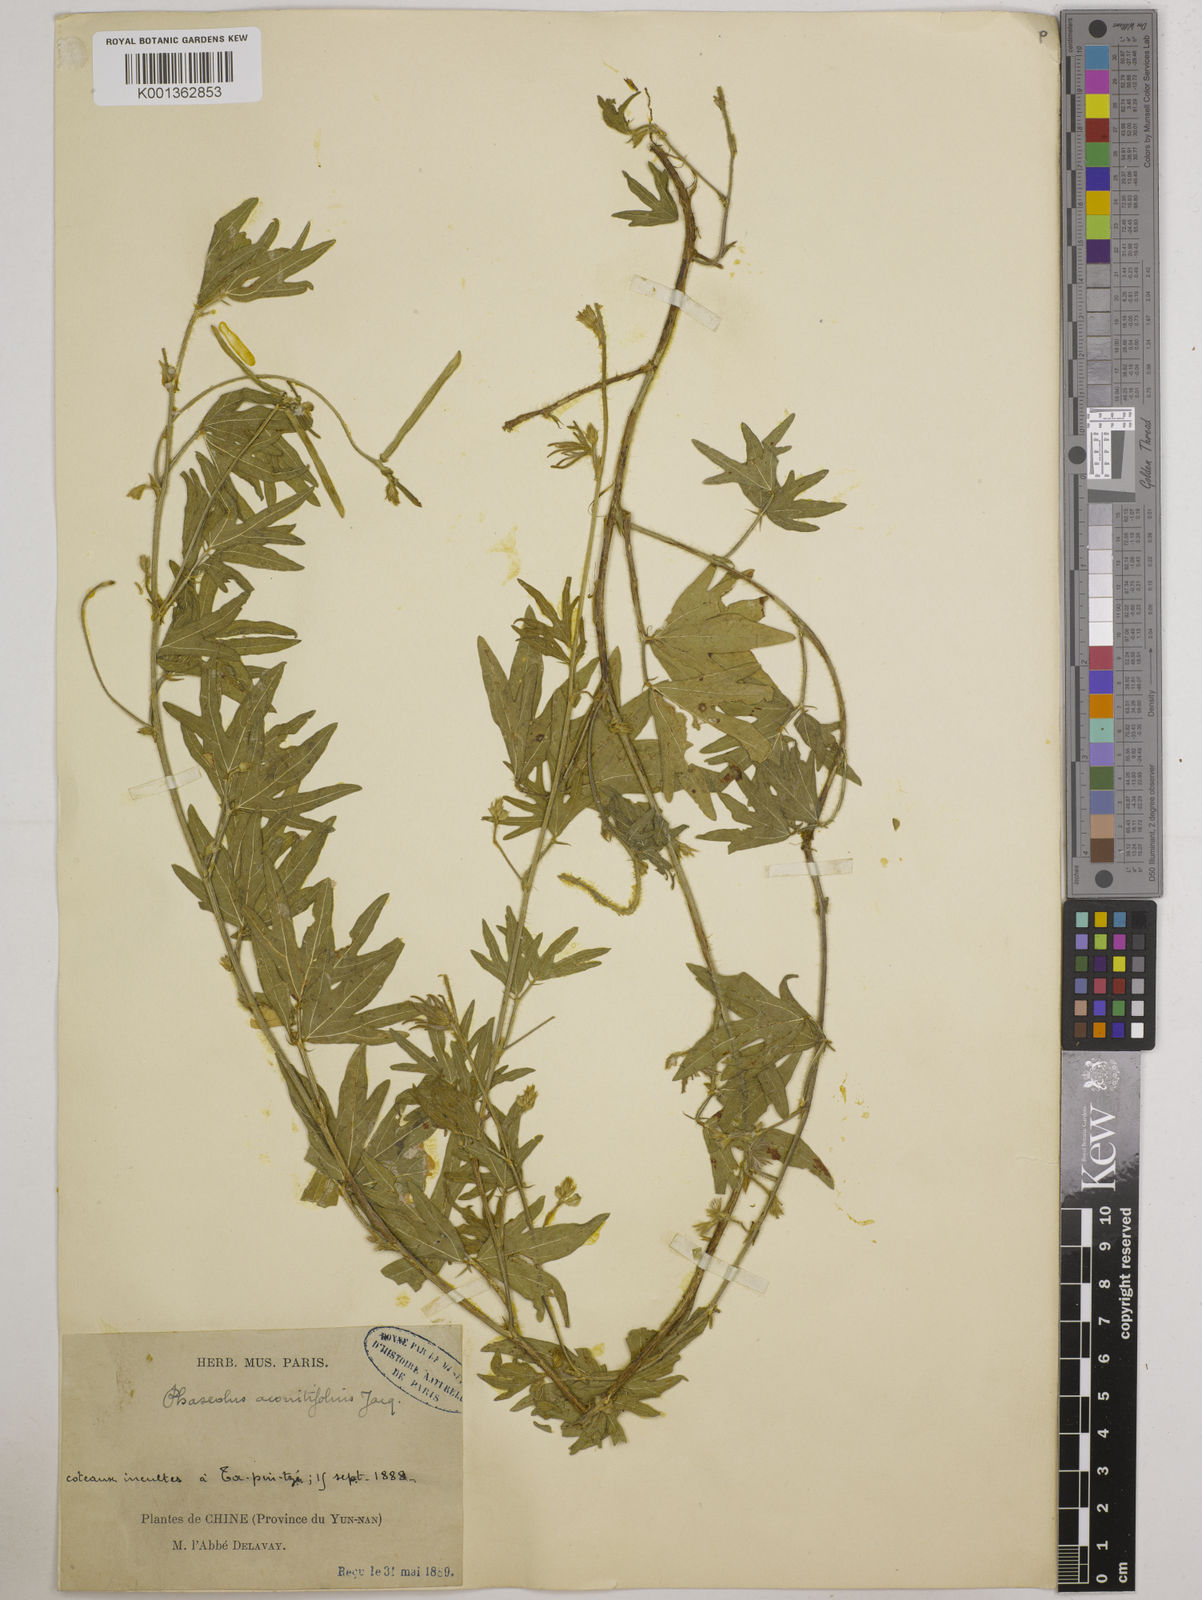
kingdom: Plantae
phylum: Tracheophyta
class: Magnoliopsida
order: Fabales
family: Fabaceae
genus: Vigna
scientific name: Vigna aconitifolia
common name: Dew bean
